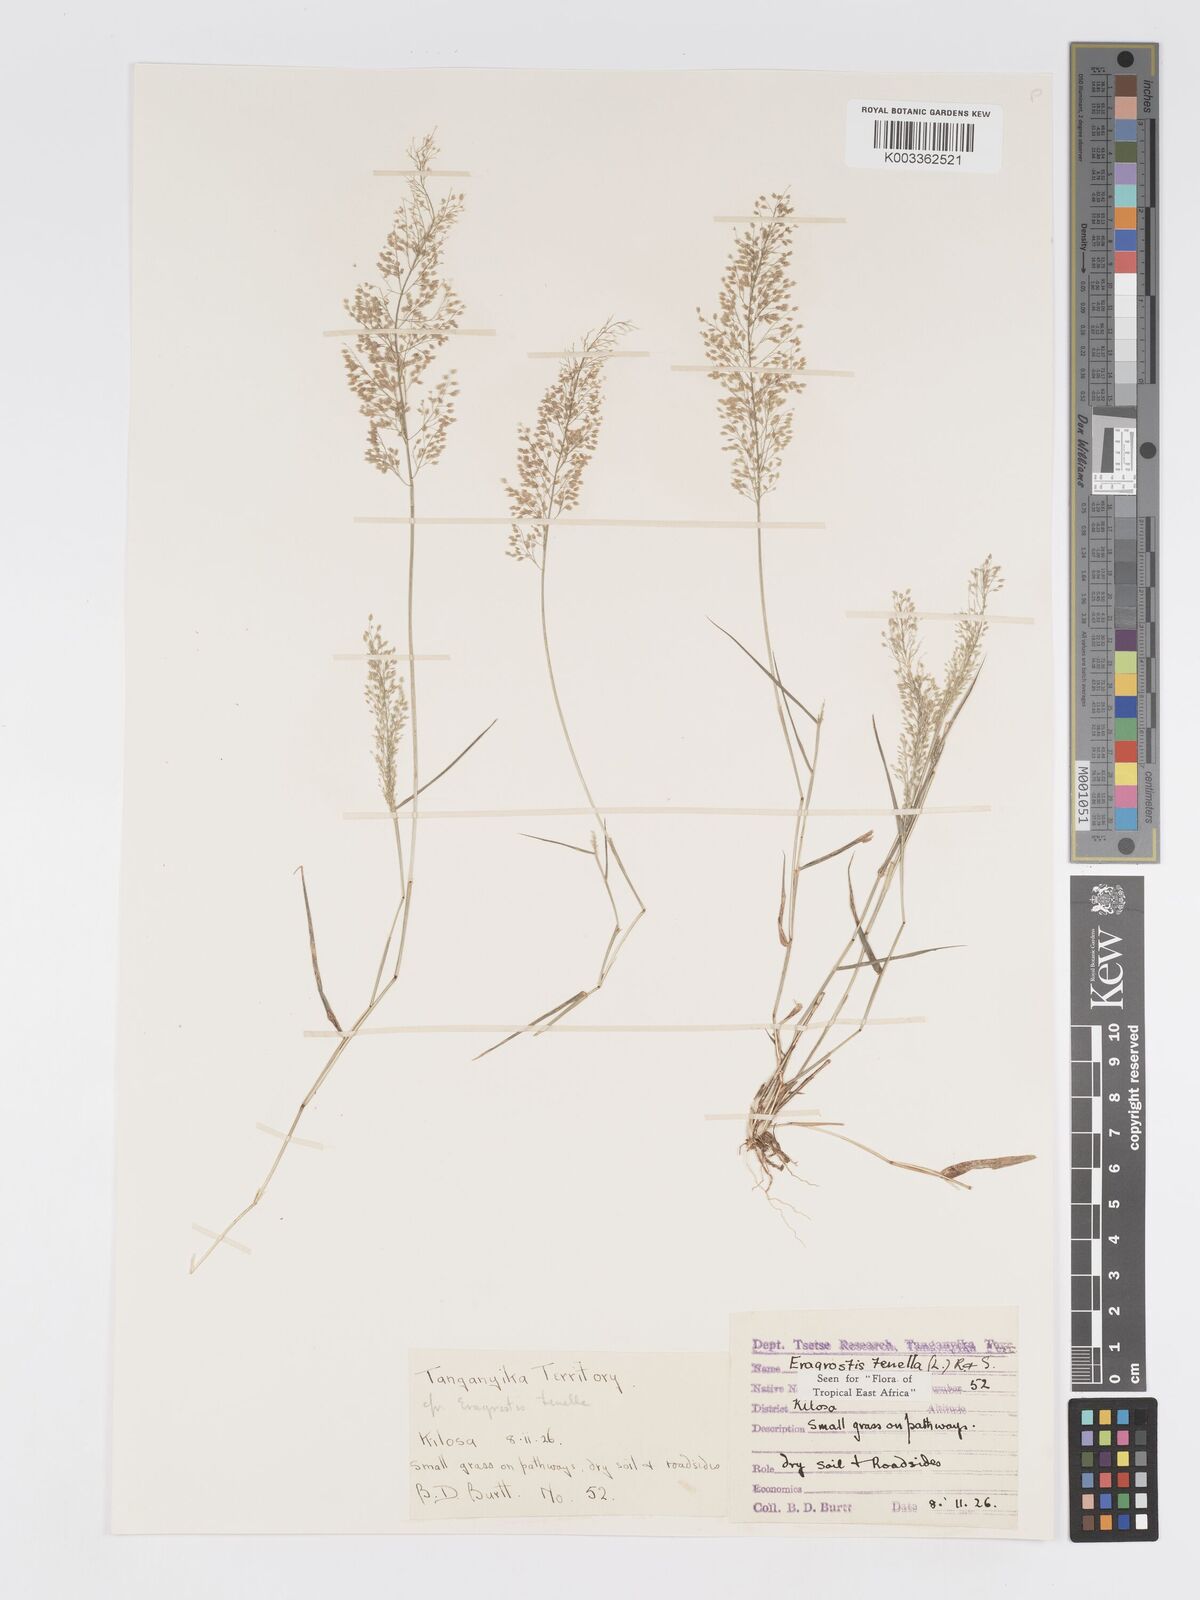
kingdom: Plantae
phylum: Tracheophyta
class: Liliopsida
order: Poales
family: Poaceae
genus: Eragrostis
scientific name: Eragrostis tenella
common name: Japanese lovegrass
